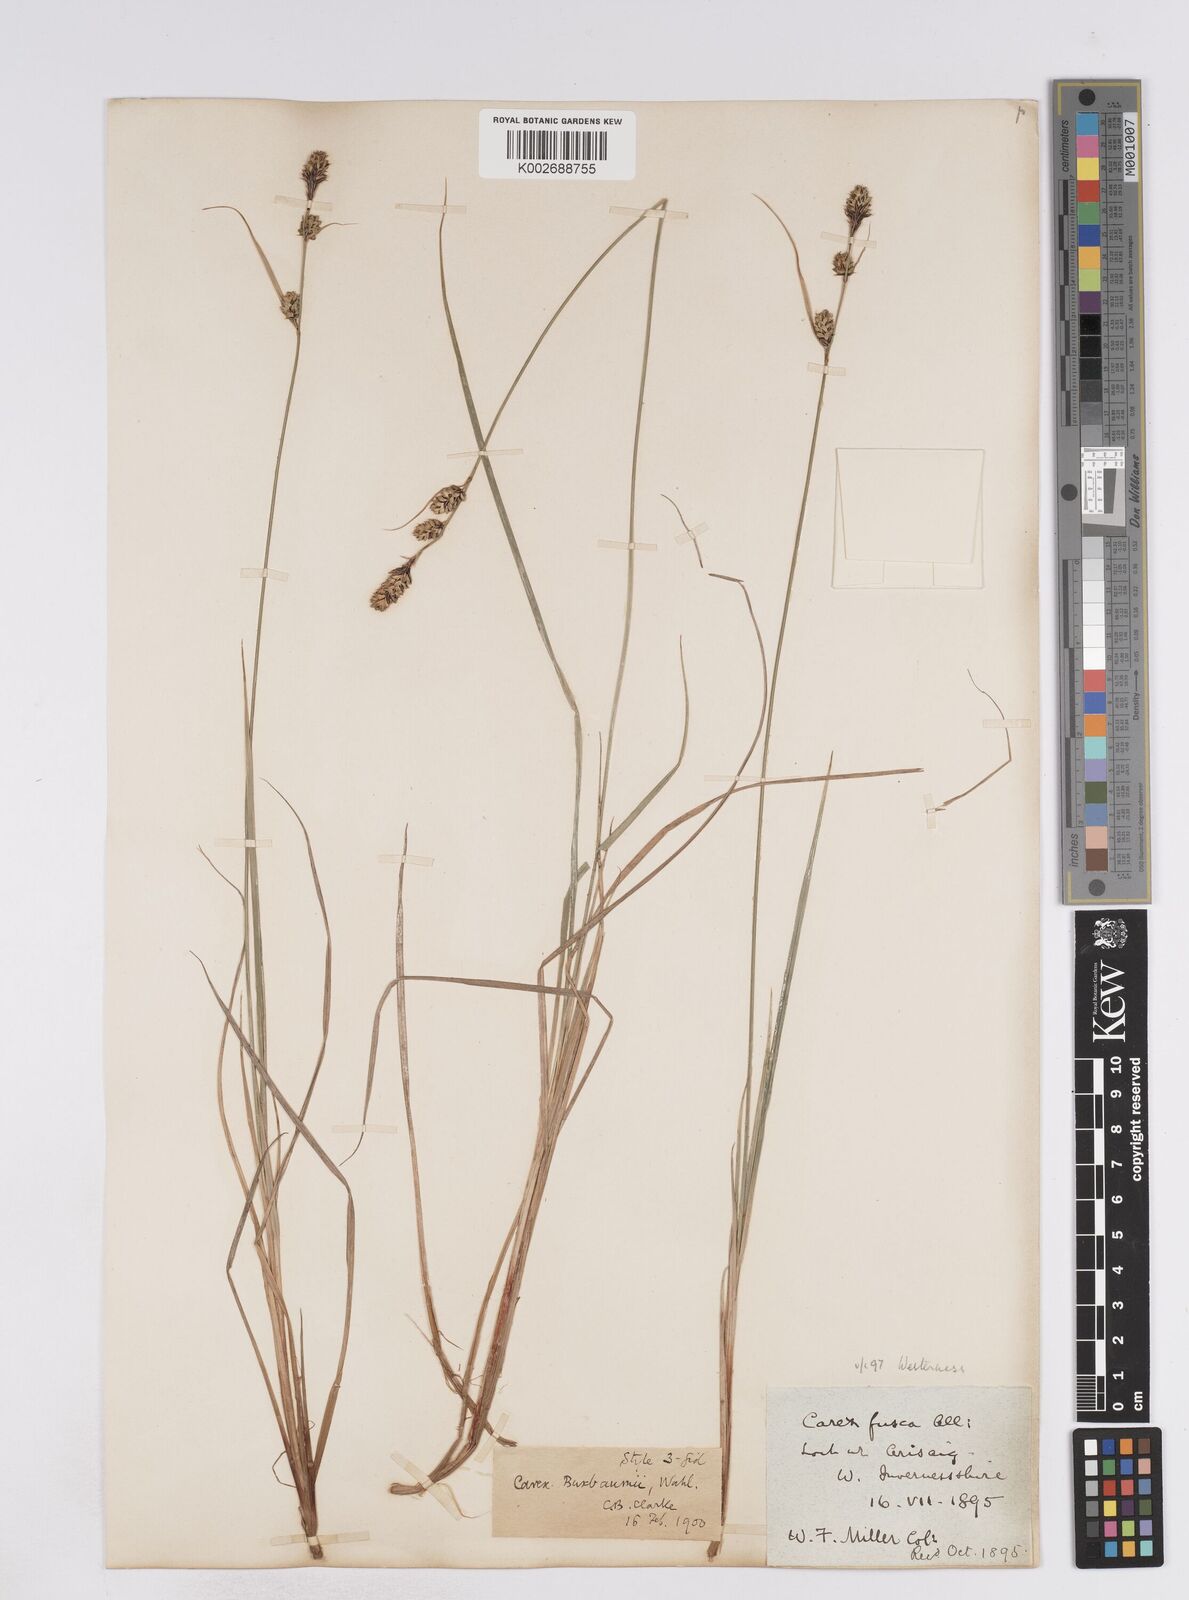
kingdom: Plantae
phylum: Tracheophyta
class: Liliopsida
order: Poales
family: Cyperaceae
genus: Carex
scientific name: Carex buxbaumii
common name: Club sedge
